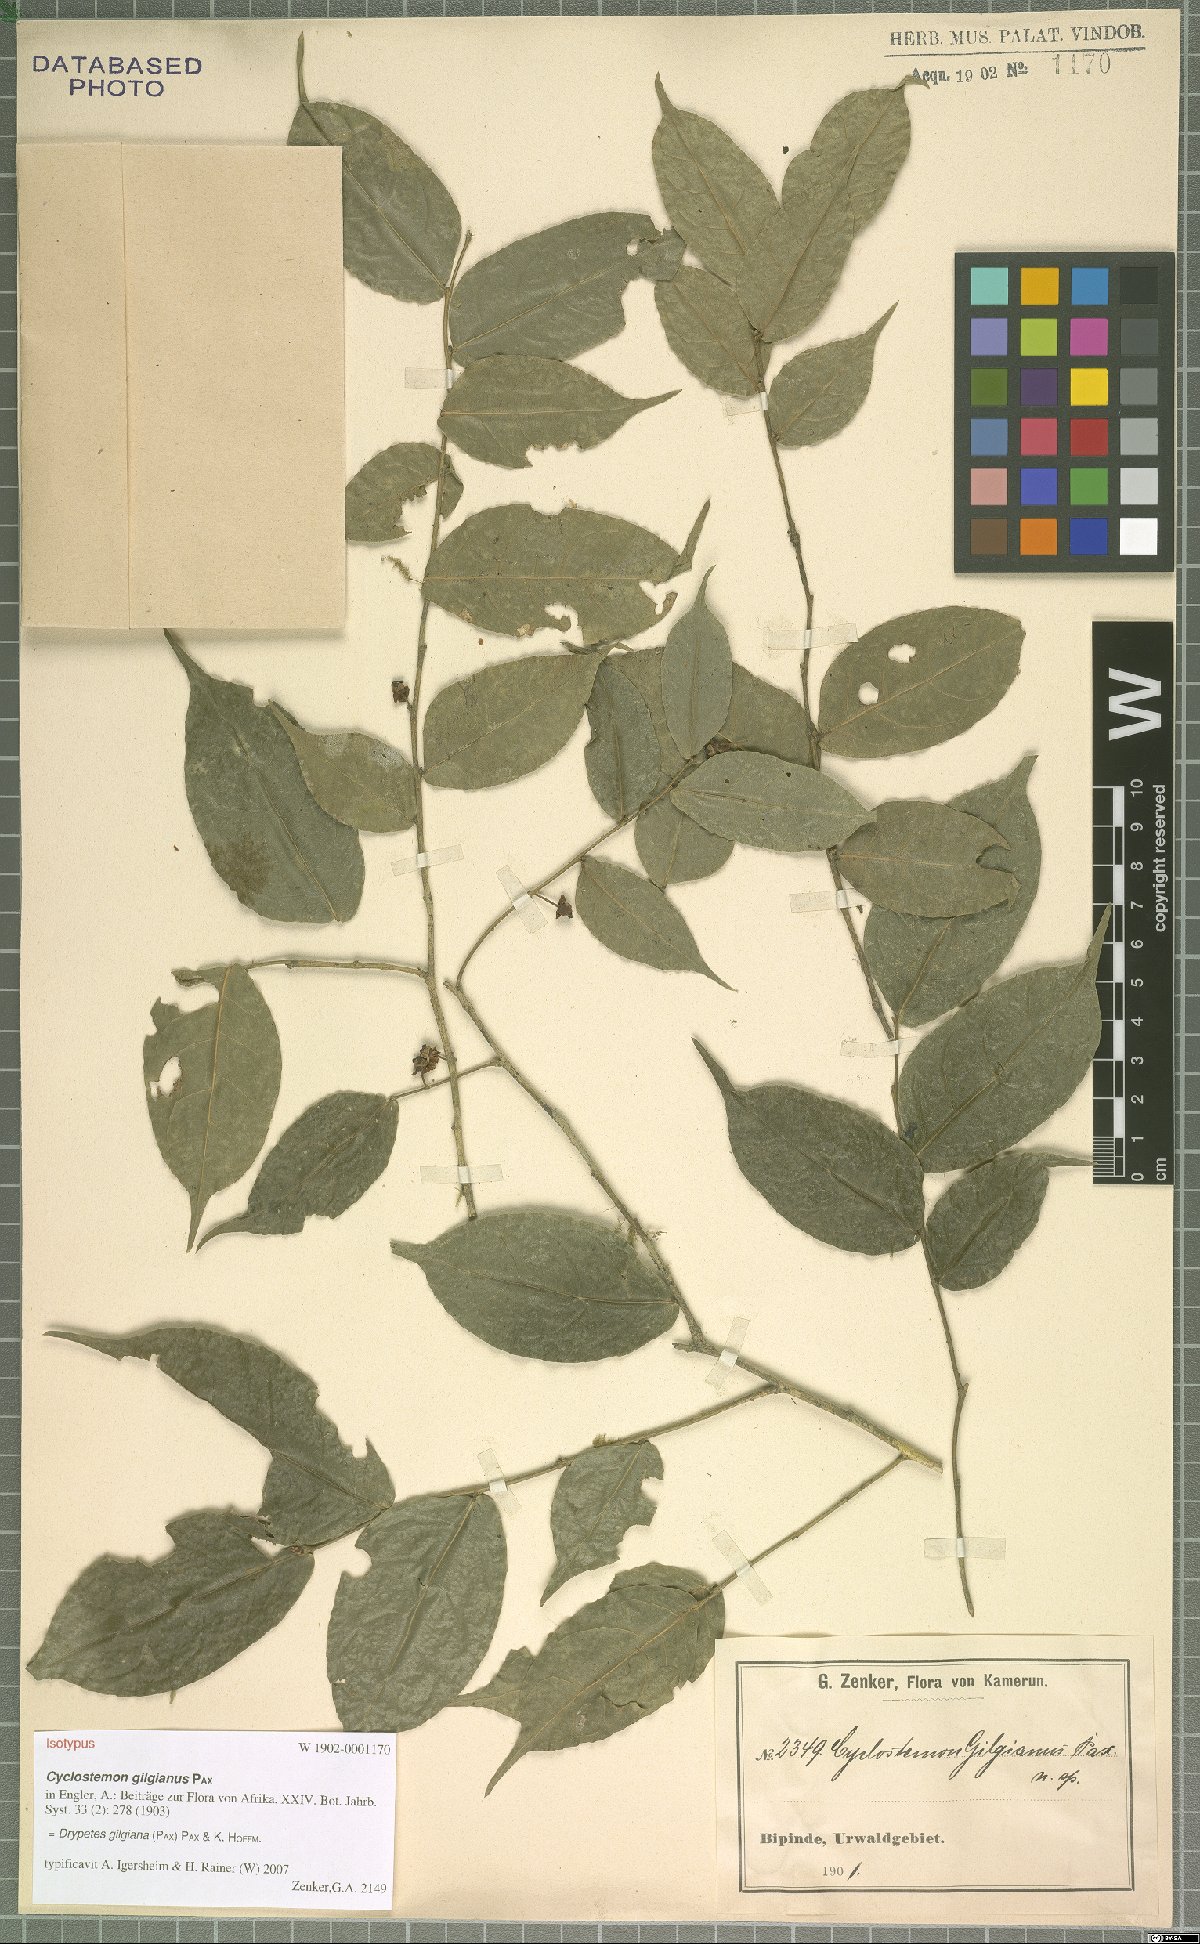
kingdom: Plantae
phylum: Tracheophyta
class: Magnoliopsida
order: Malpighiales
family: Putranjivaceae
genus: Drypetes
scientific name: Drypetes gilgiana
